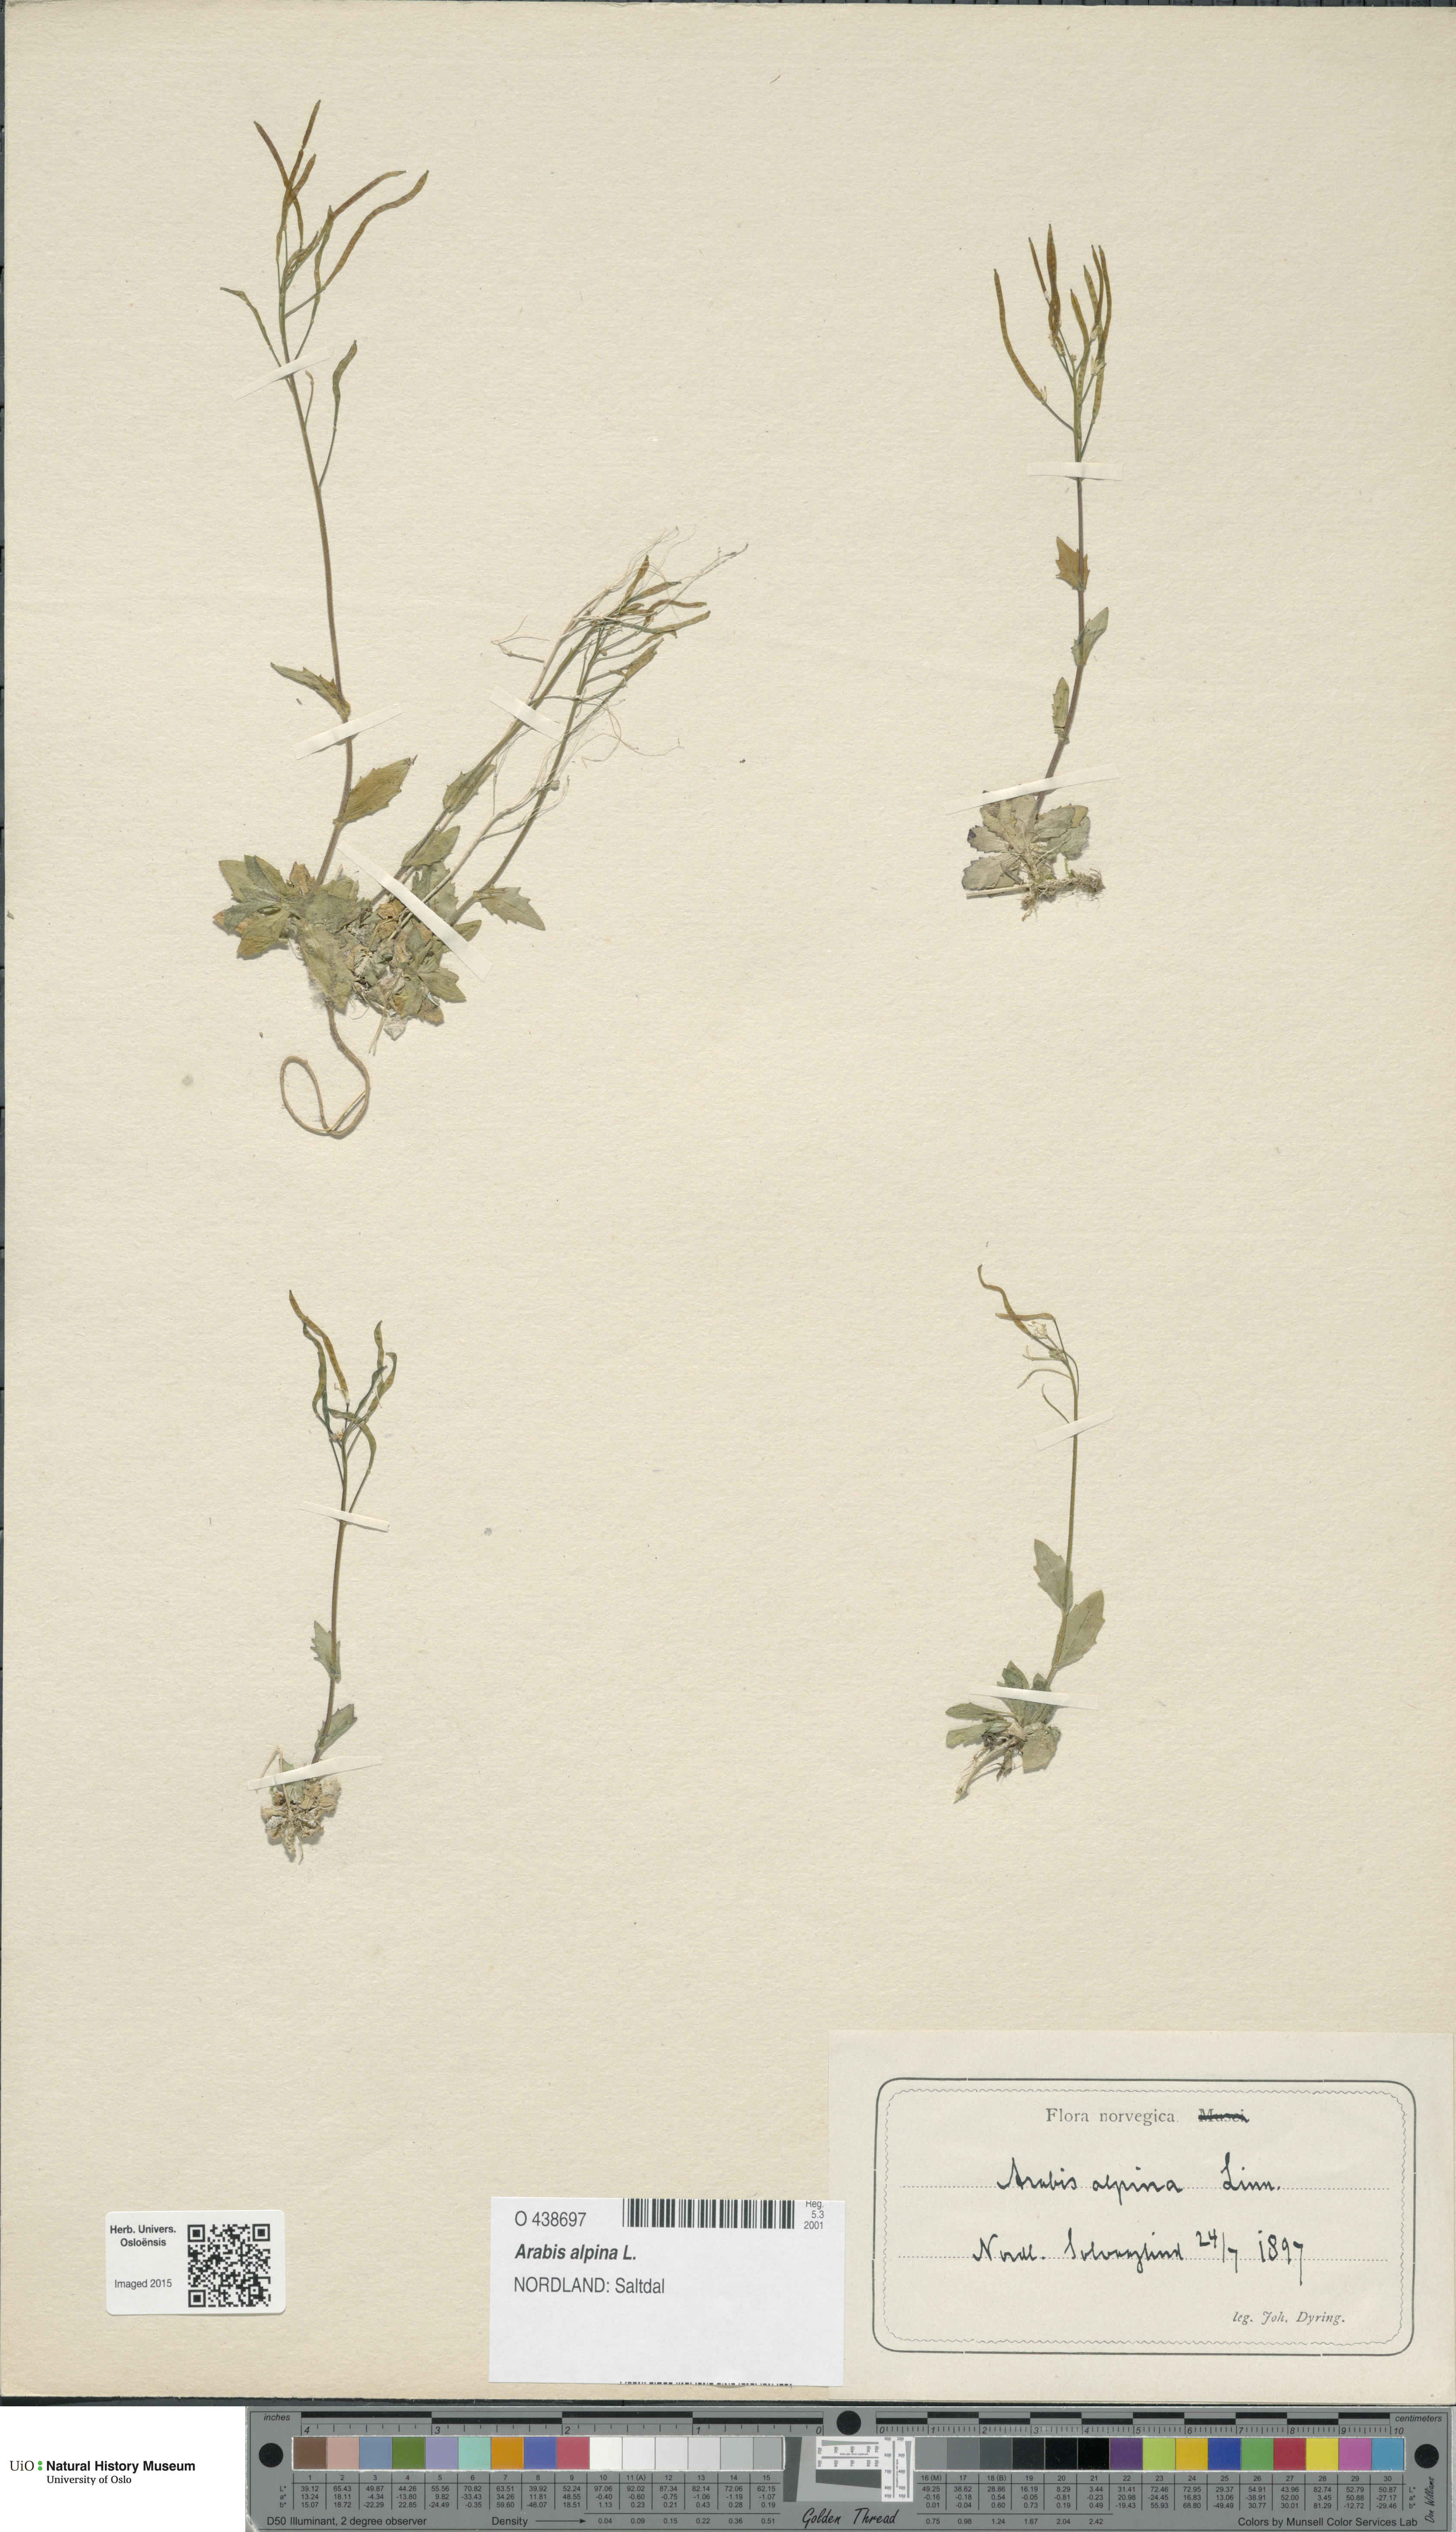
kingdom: Plantae
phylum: Tracheophyta
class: Magnoliopsida
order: Brassicales
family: Brassicaceae
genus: Arabis
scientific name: Arabis alpina
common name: Alpine rock-cress
